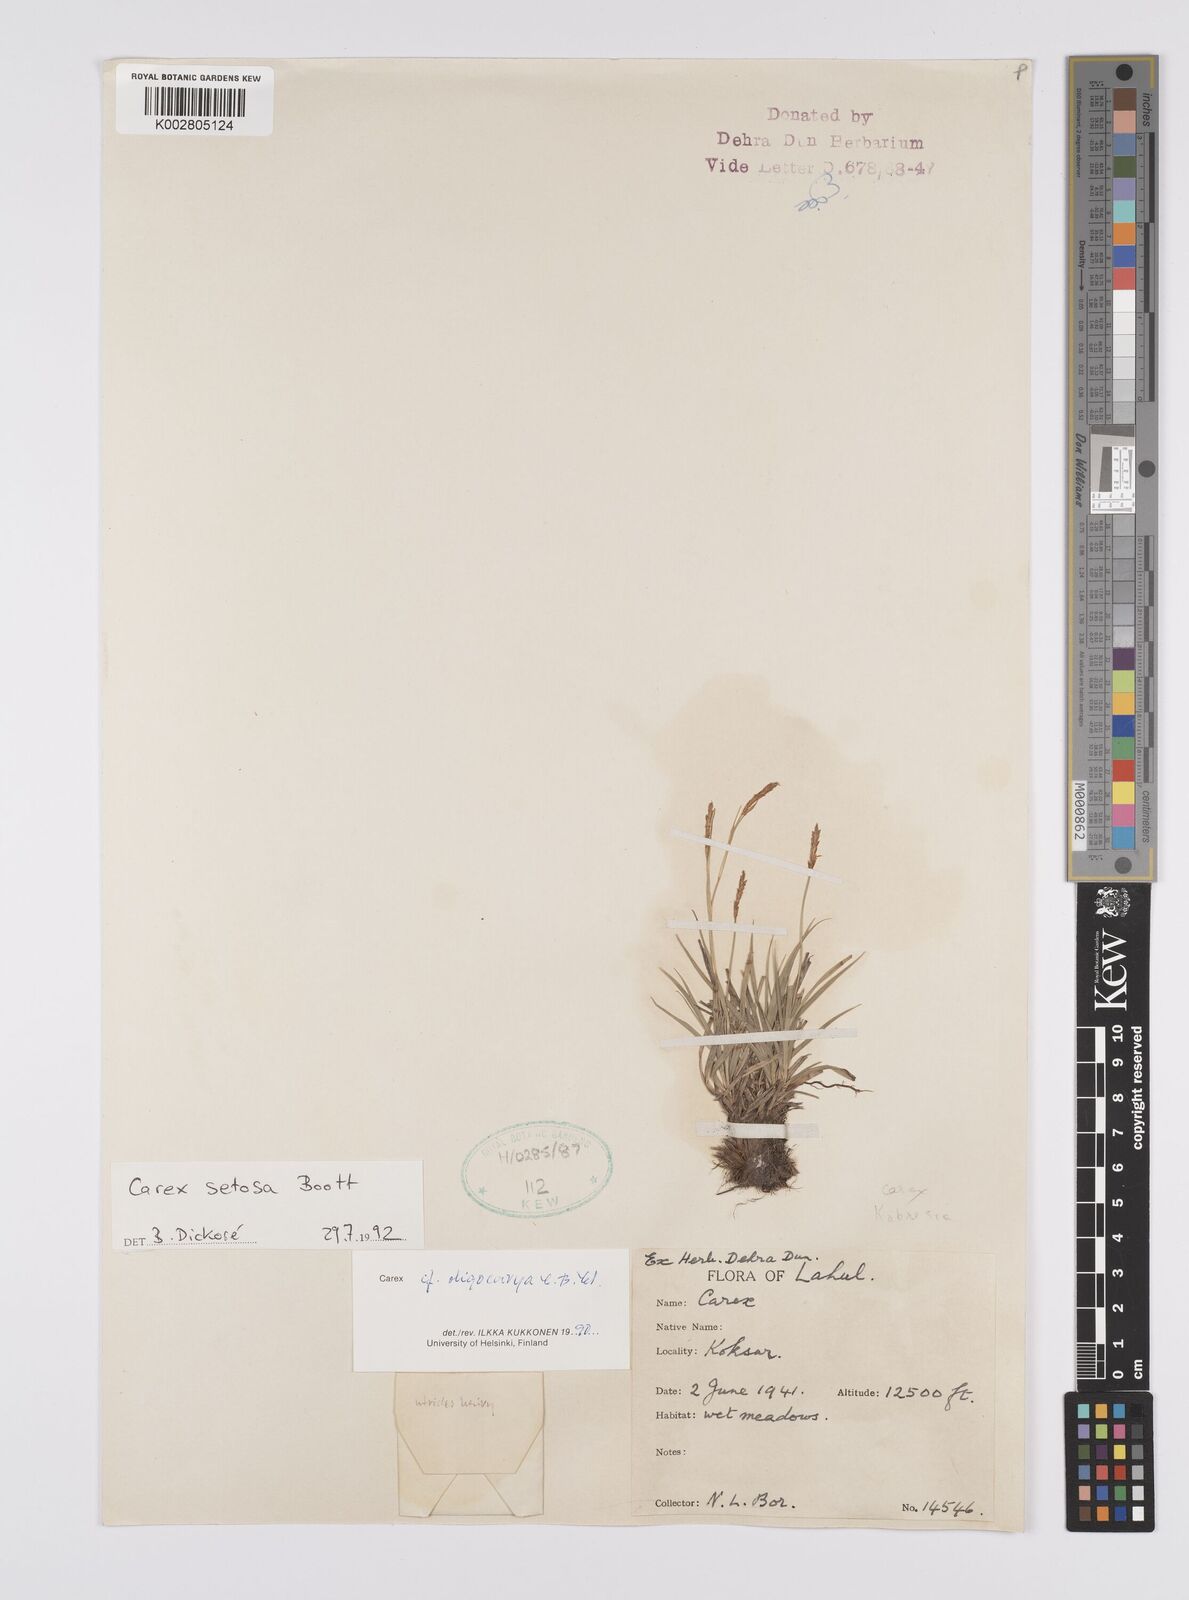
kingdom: Plantae
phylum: Tracheophyta
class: Liliopsida
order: Poales
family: Cyperaceae
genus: Carex
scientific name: Carex setosa
